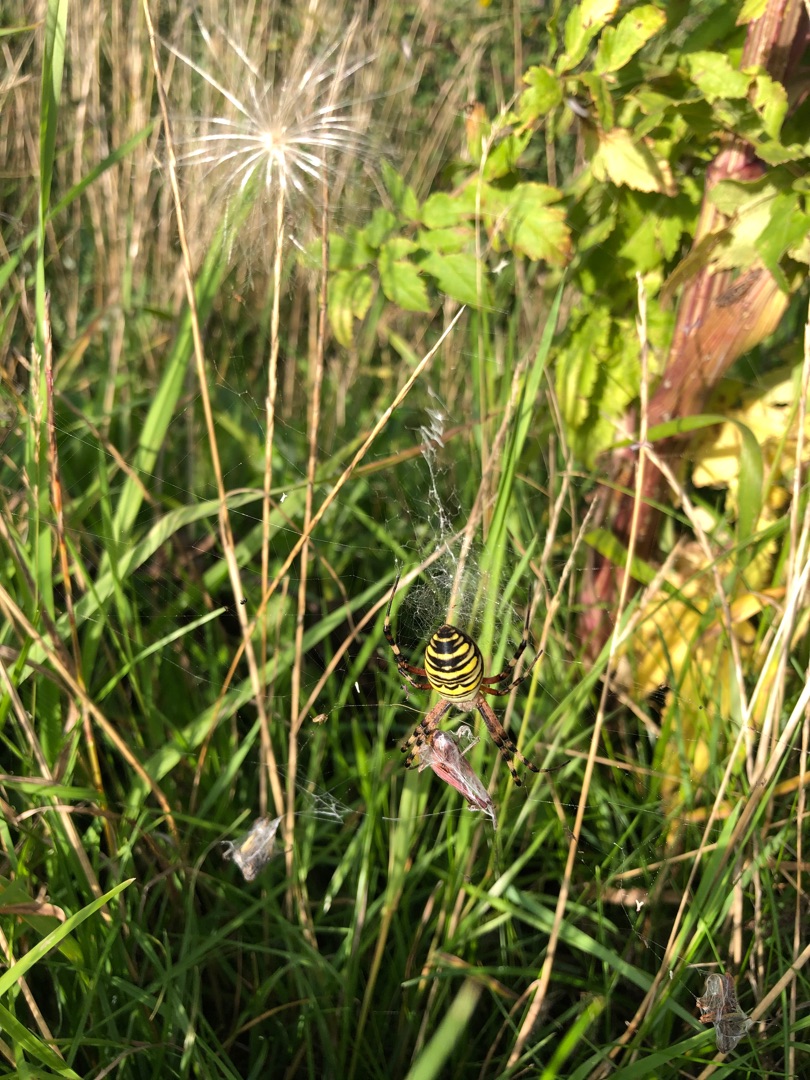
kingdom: Animalia
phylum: Arthropoda
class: Arachnida
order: Araneae
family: Araneidae
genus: Argiope
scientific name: Argiope bruennichi
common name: Hvepseedderkop
